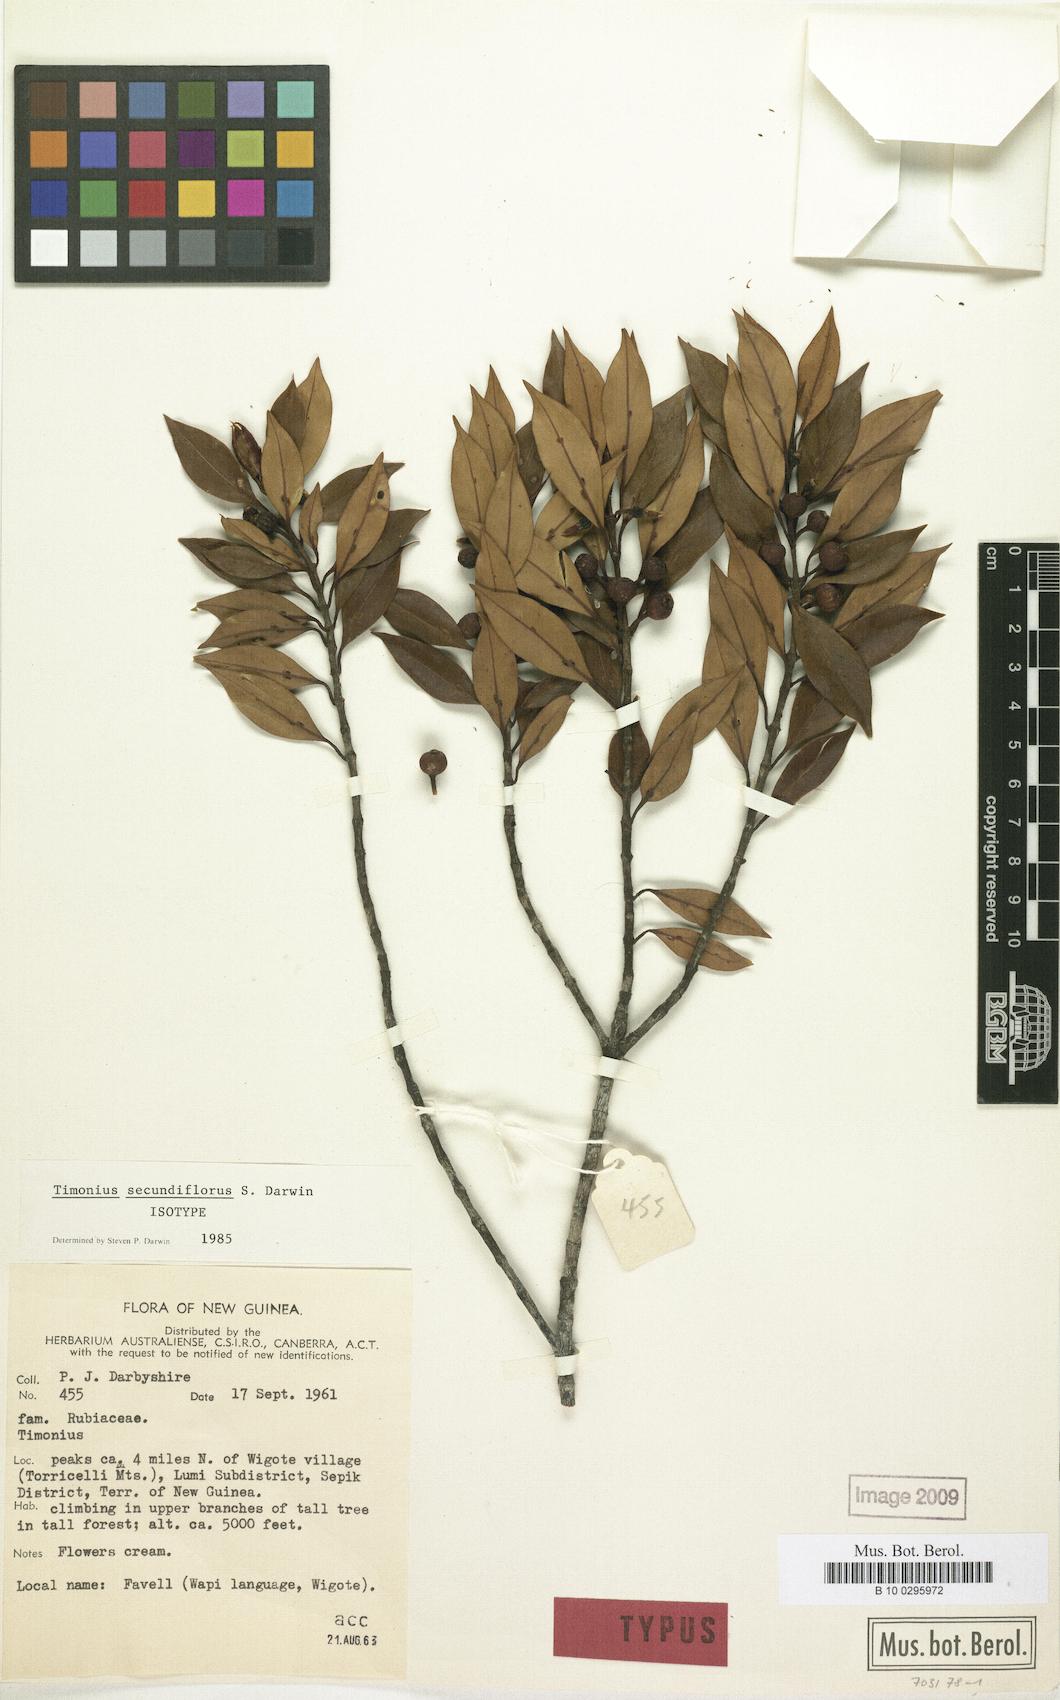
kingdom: Plantae
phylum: Tracheophyta
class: Magnoliopsida
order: Gentianales
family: Rubiaceae
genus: Timonius
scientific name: Timonius secundiflorus
